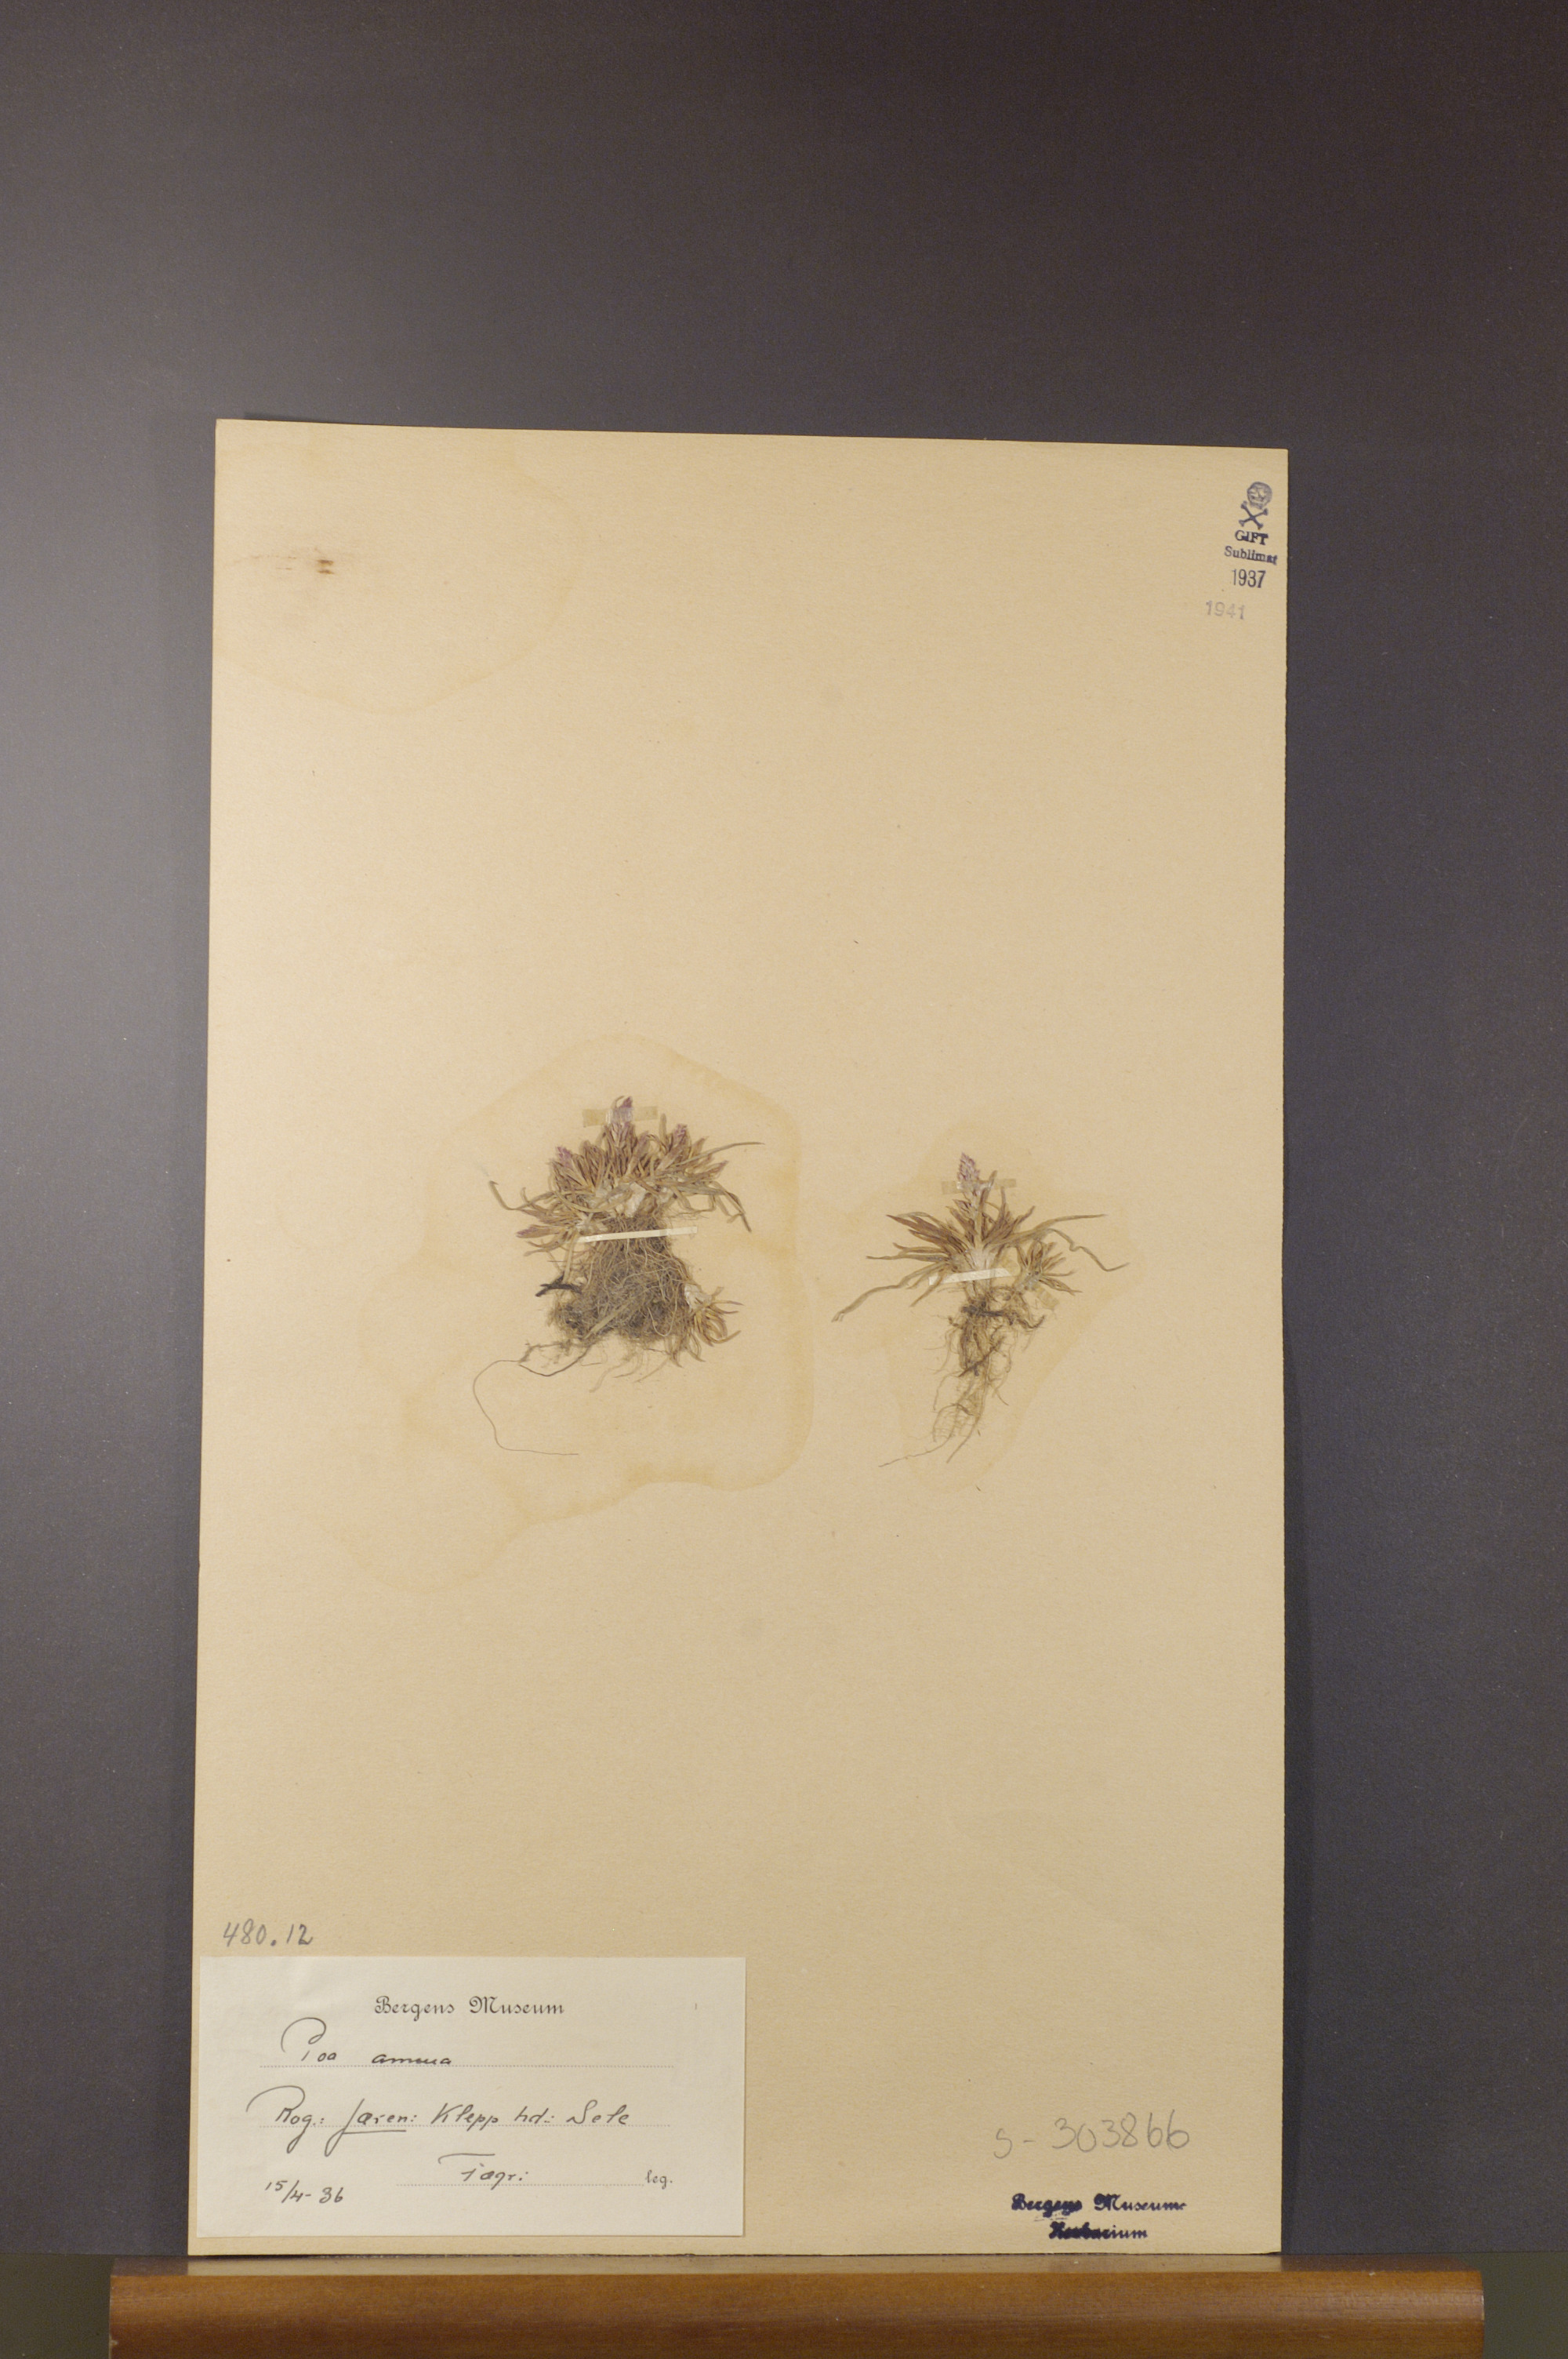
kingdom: Plantae
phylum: Tracheophyta
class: Liliopsida
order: Poales
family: Poaceae
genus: Poa
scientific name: Poa annua
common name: Annual bluegrass
